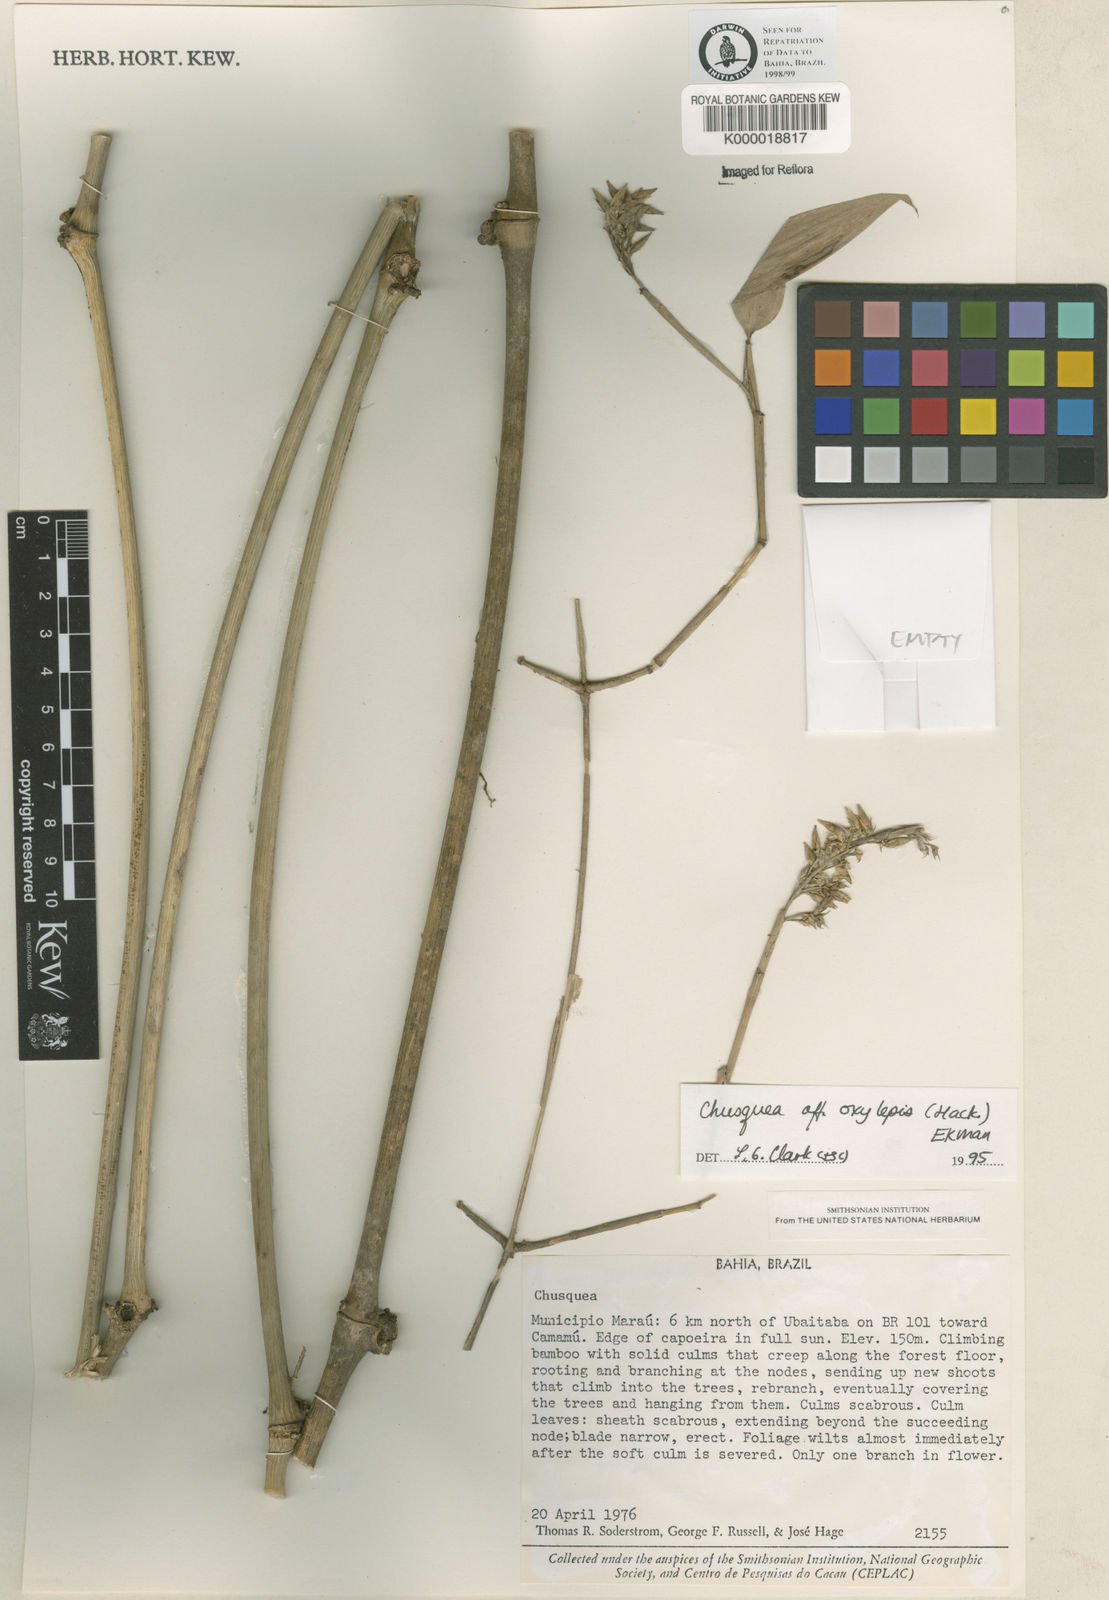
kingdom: Plantae
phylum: Tracheophyta
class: Liliopsida
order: Poales
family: Poaceae
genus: Chusquea
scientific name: Chusquea oxylepis
